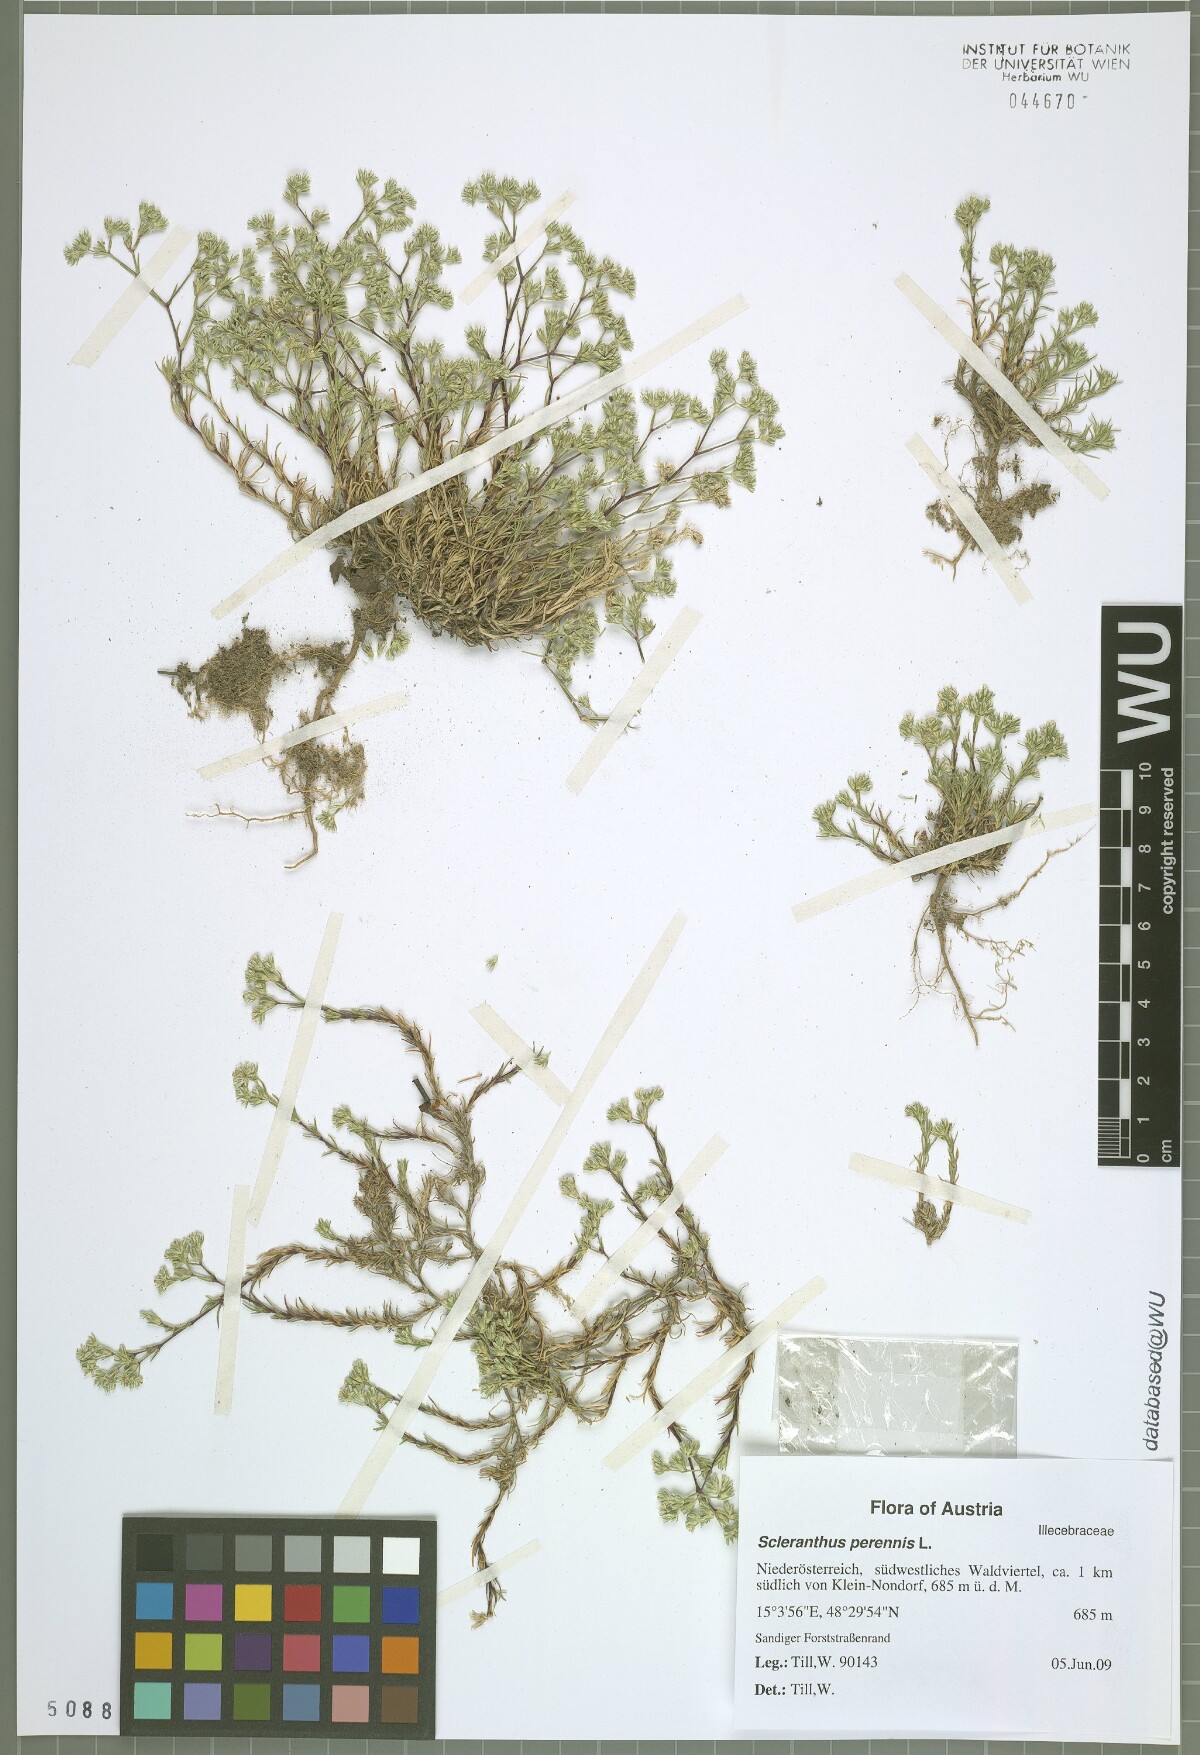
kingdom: Plantae
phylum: Tracheophyta
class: Magnoliopsida
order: Caryophyllales
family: Caryophyllaceae
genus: Scleranthus
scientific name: Scleranthus perennis
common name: Perennial knawel
